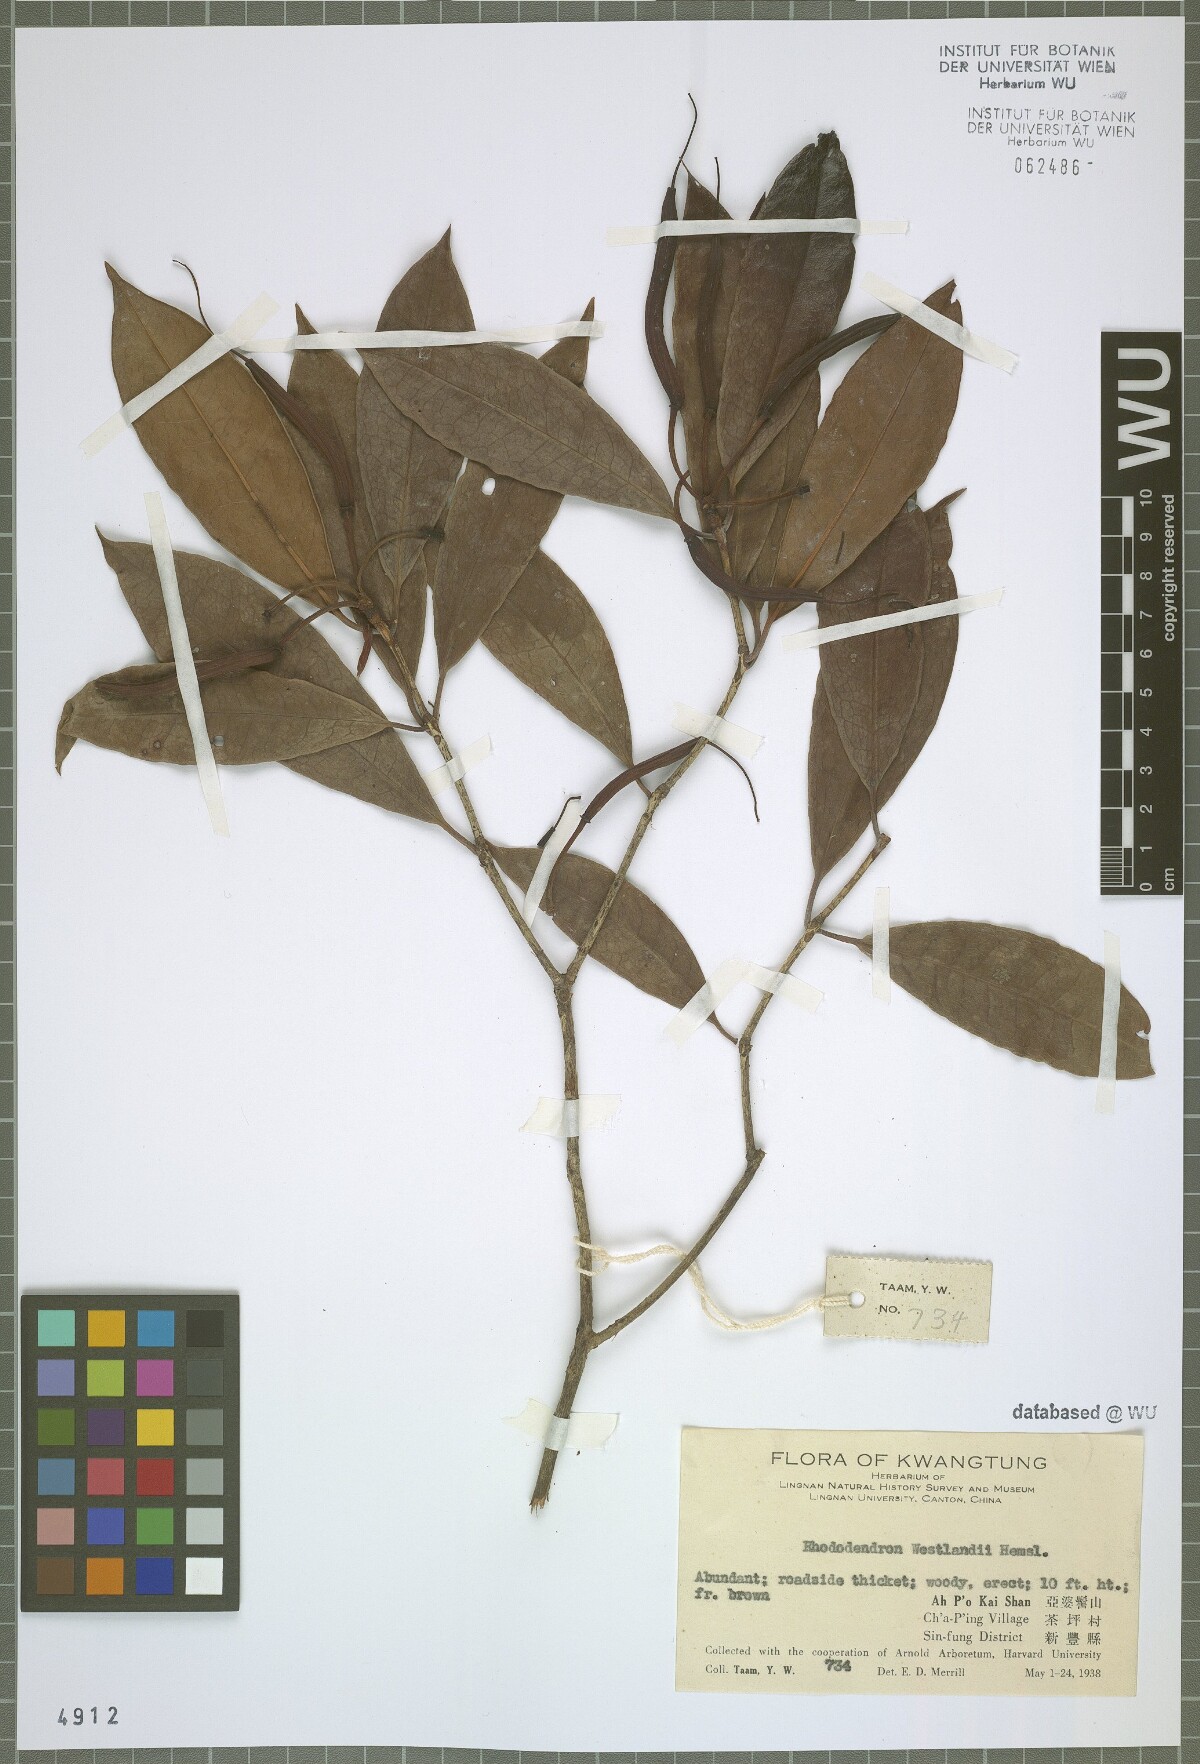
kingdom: Plantae
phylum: Tracheophyta
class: Magnoliopsida
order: Ericales
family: Ericaceae
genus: Rhododendron
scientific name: Rhododendron westlandii
